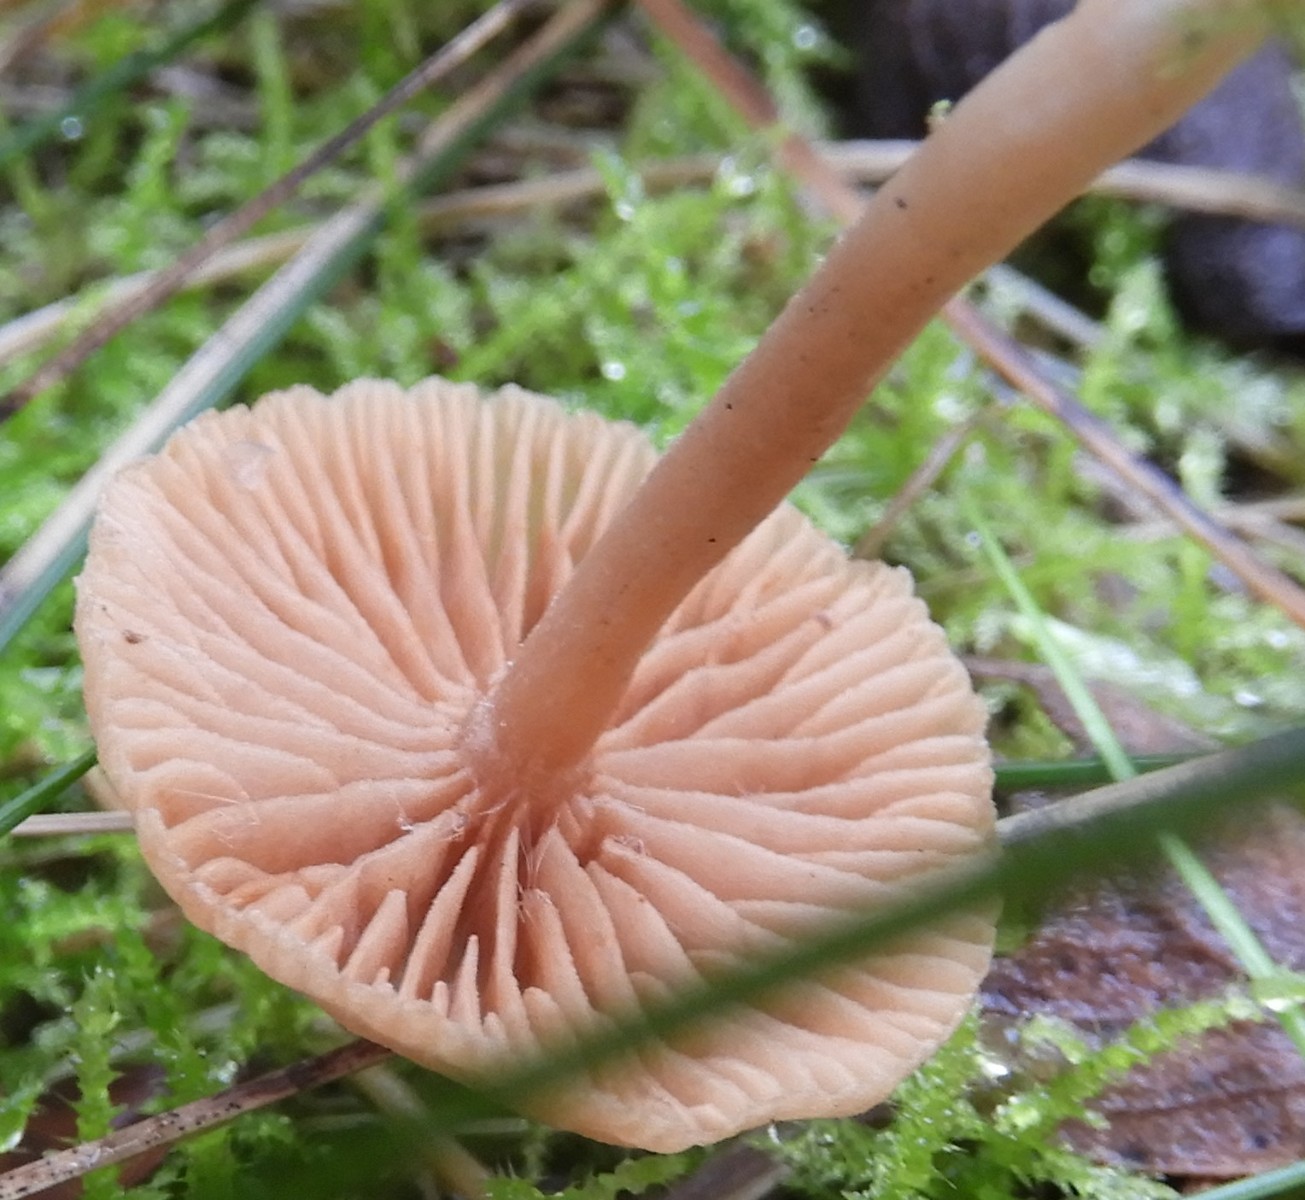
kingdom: Fungi
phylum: Basidiomycota
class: Agaricomycetes
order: Agaricales
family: Tubariaceae
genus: Tubaria
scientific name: Tubaria furfuracea
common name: kliddet fnughat
